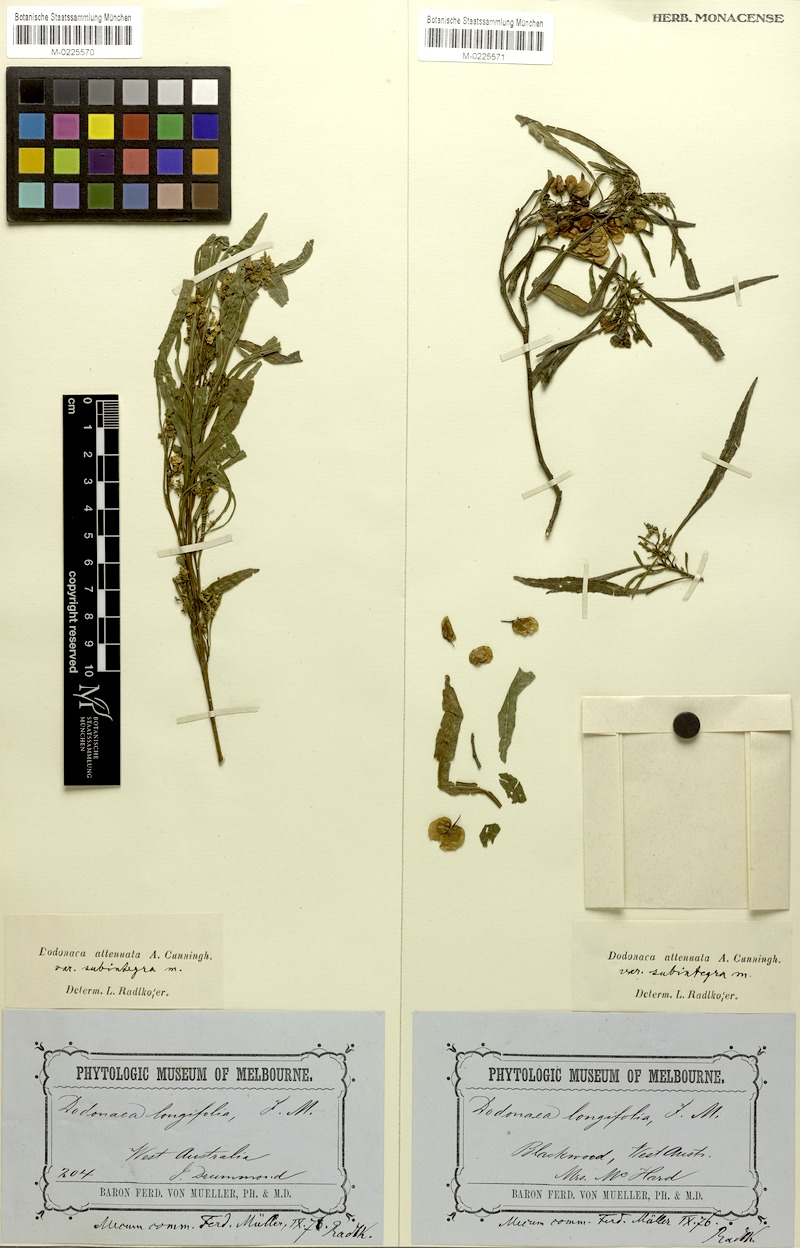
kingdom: Plantae
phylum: Tracheophyta
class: Magnoliopsida
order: Sapindales
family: Sapindaceae
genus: Dodonaea
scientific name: Dodonaea viscosa
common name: Hopbush
